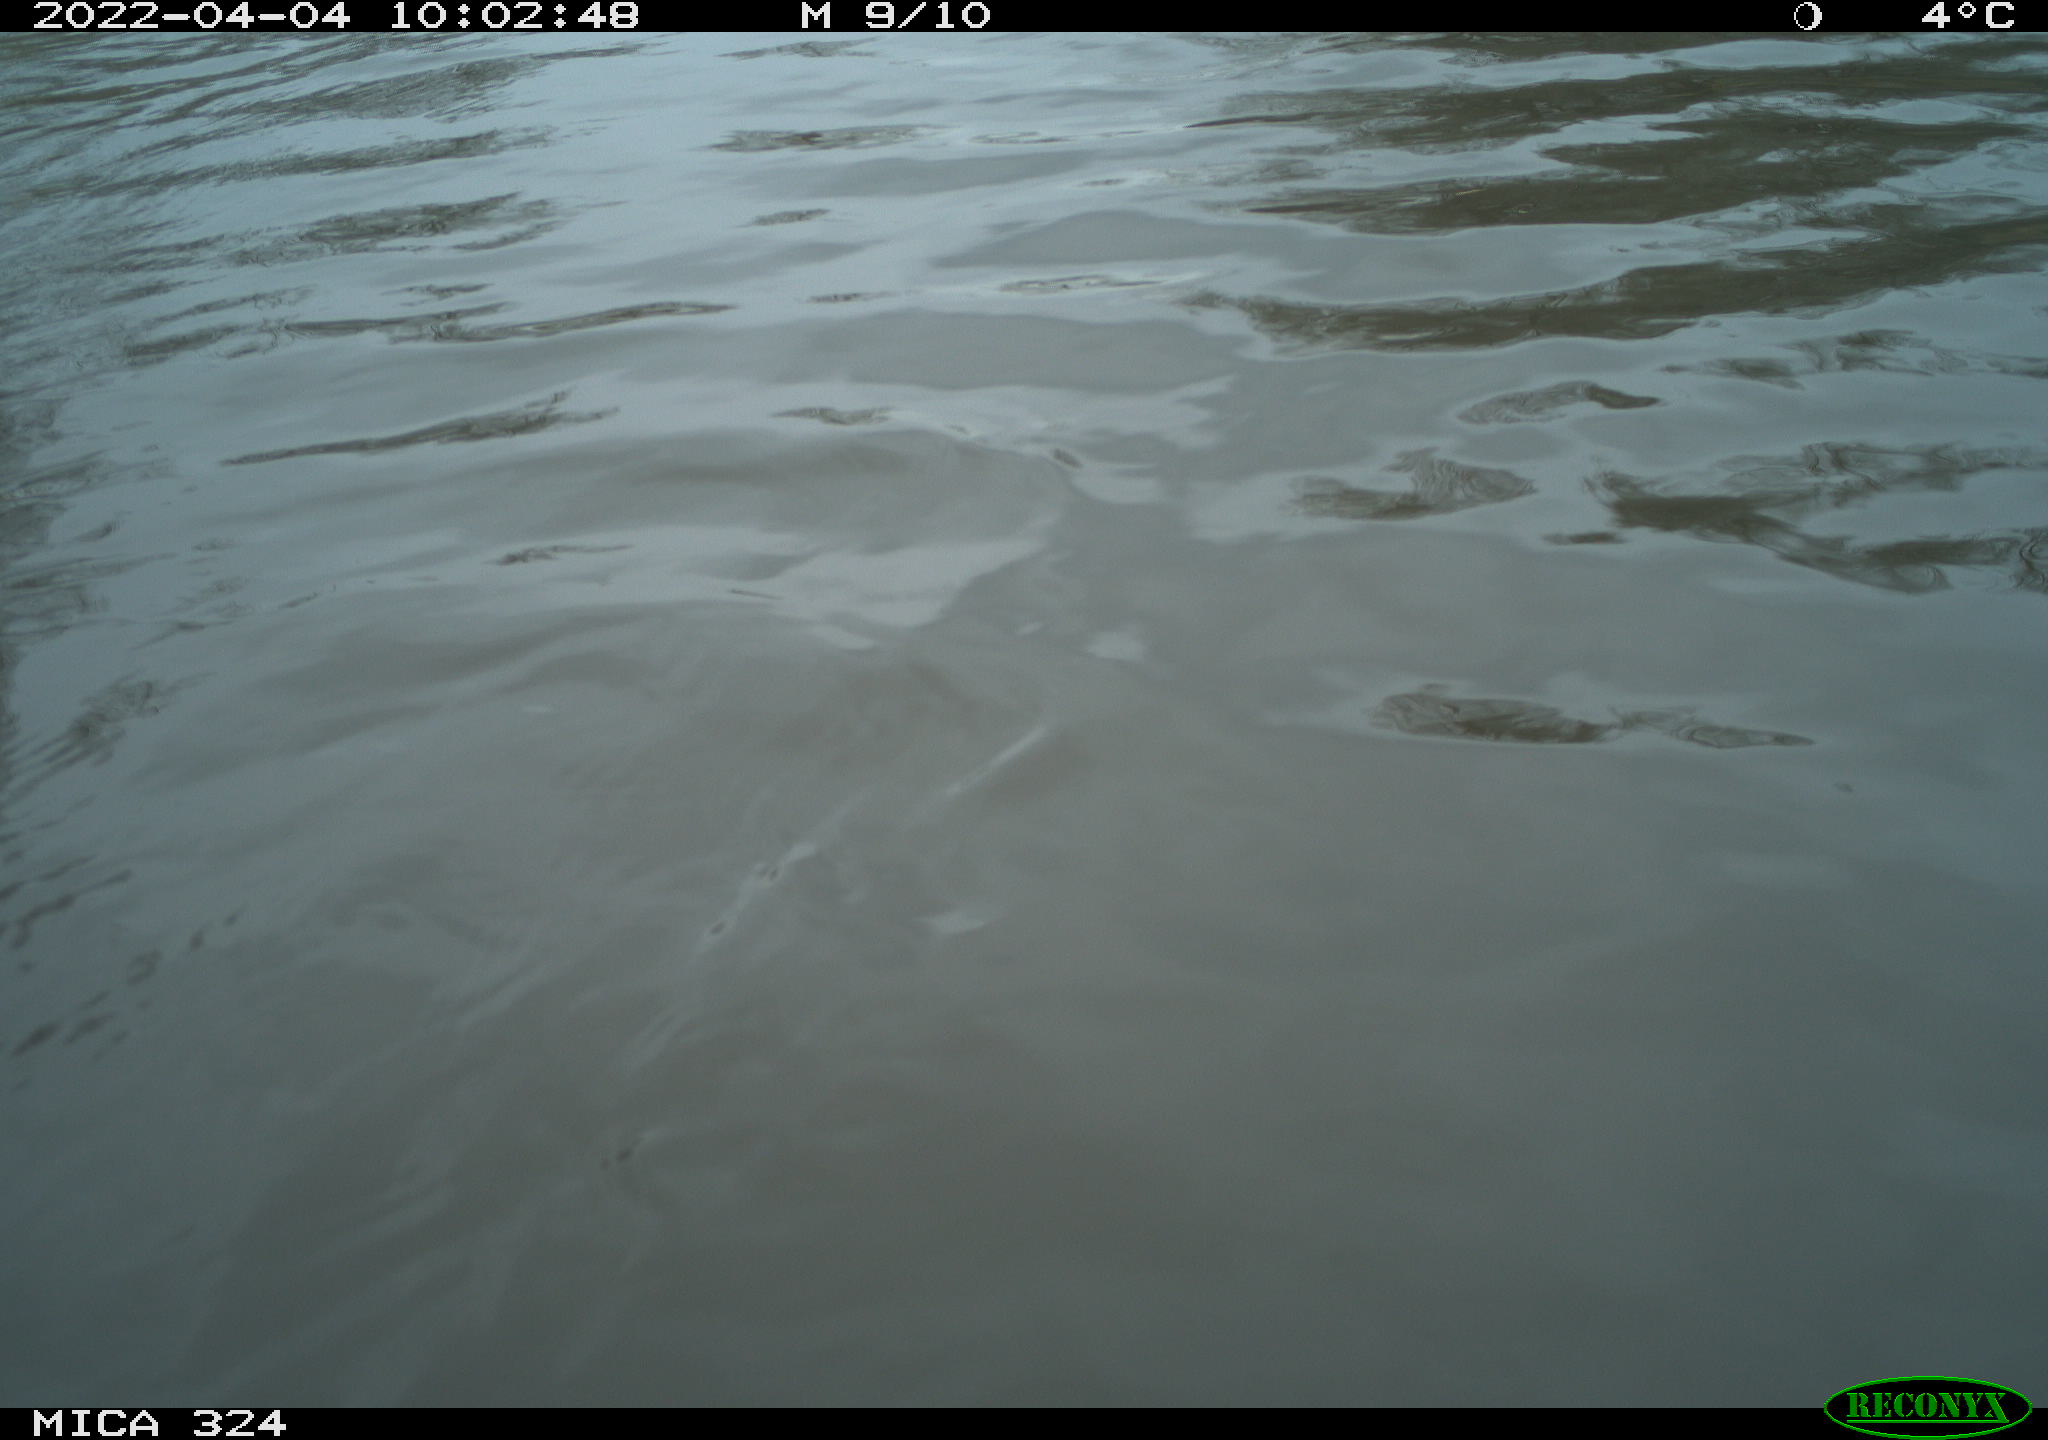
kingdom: Animalia
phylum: Chordata
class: Mammalia
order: Rodentia
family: Cricetidae
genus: Ondatra
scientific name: Ondatra zibethicus
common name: Muskrat
